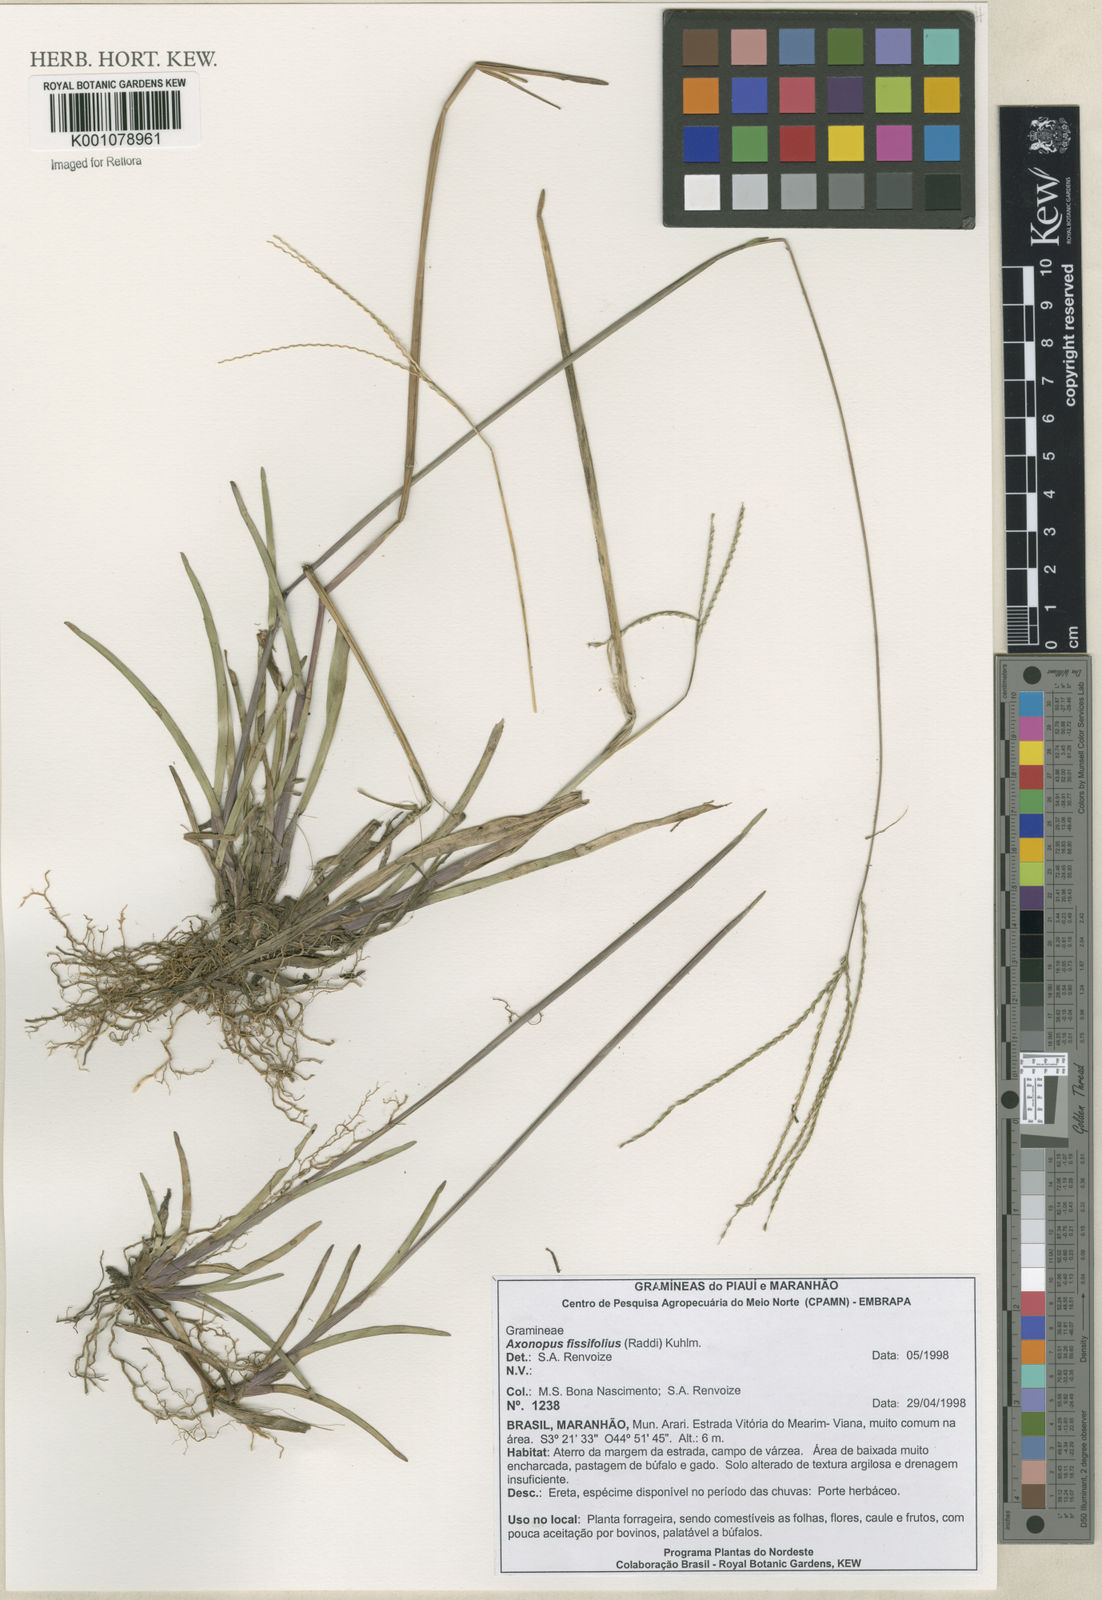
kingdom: Plantae
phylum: Tracheophyta
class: Liliopsida
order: Poales
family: Poaceae
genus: Axonopus
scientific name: Axonopus fissifolius
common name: Common carpetgrass
